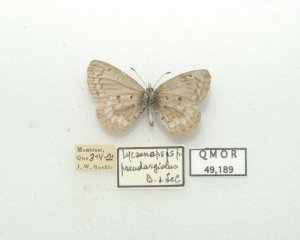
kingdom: Animalia
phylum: Arthropoda
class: Insecta
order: Lepidoptera
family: Lycaenidae
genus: Celastrina
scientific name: Celastrina lucia
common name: Northern Spring Azure
